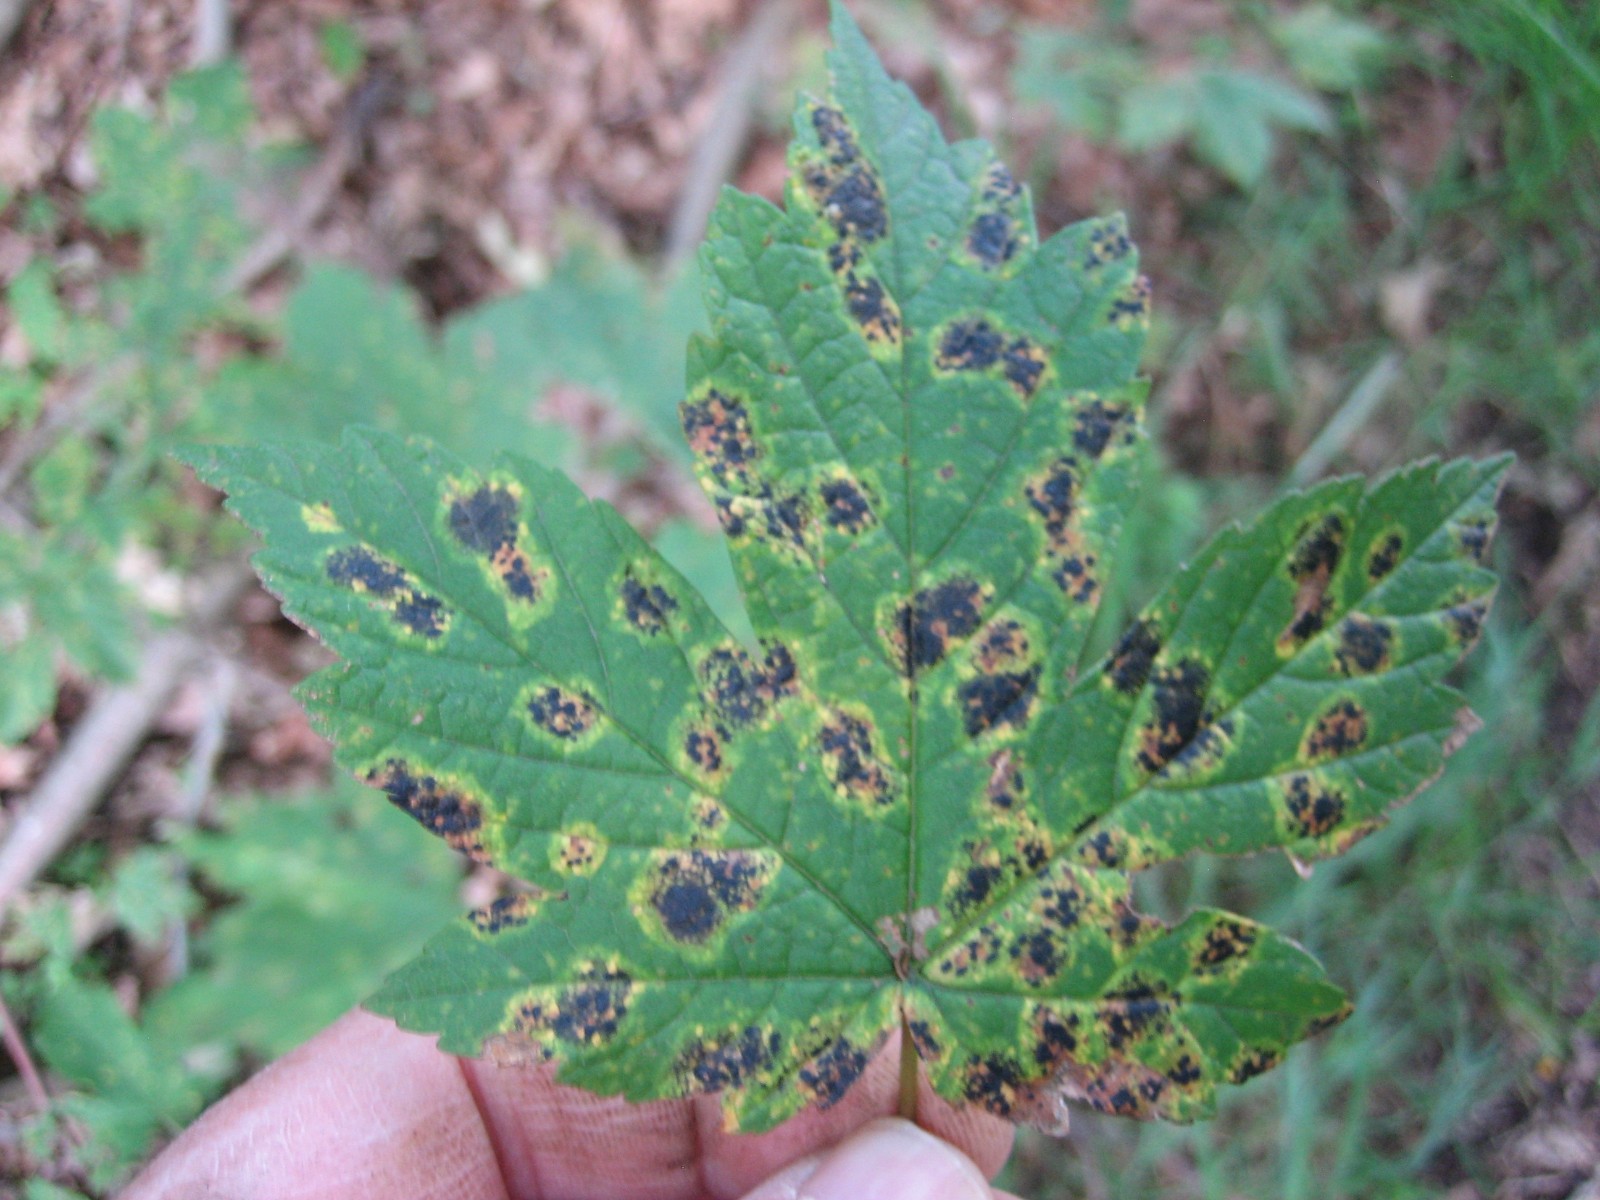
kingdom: Fungi
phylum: Ascomycota
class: Leotiomycetes
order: Rhytismatales
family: Rhytismataceae
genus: Rhytisma
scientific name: Rhytisma acerinum
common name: ahorn-rynkeplet
